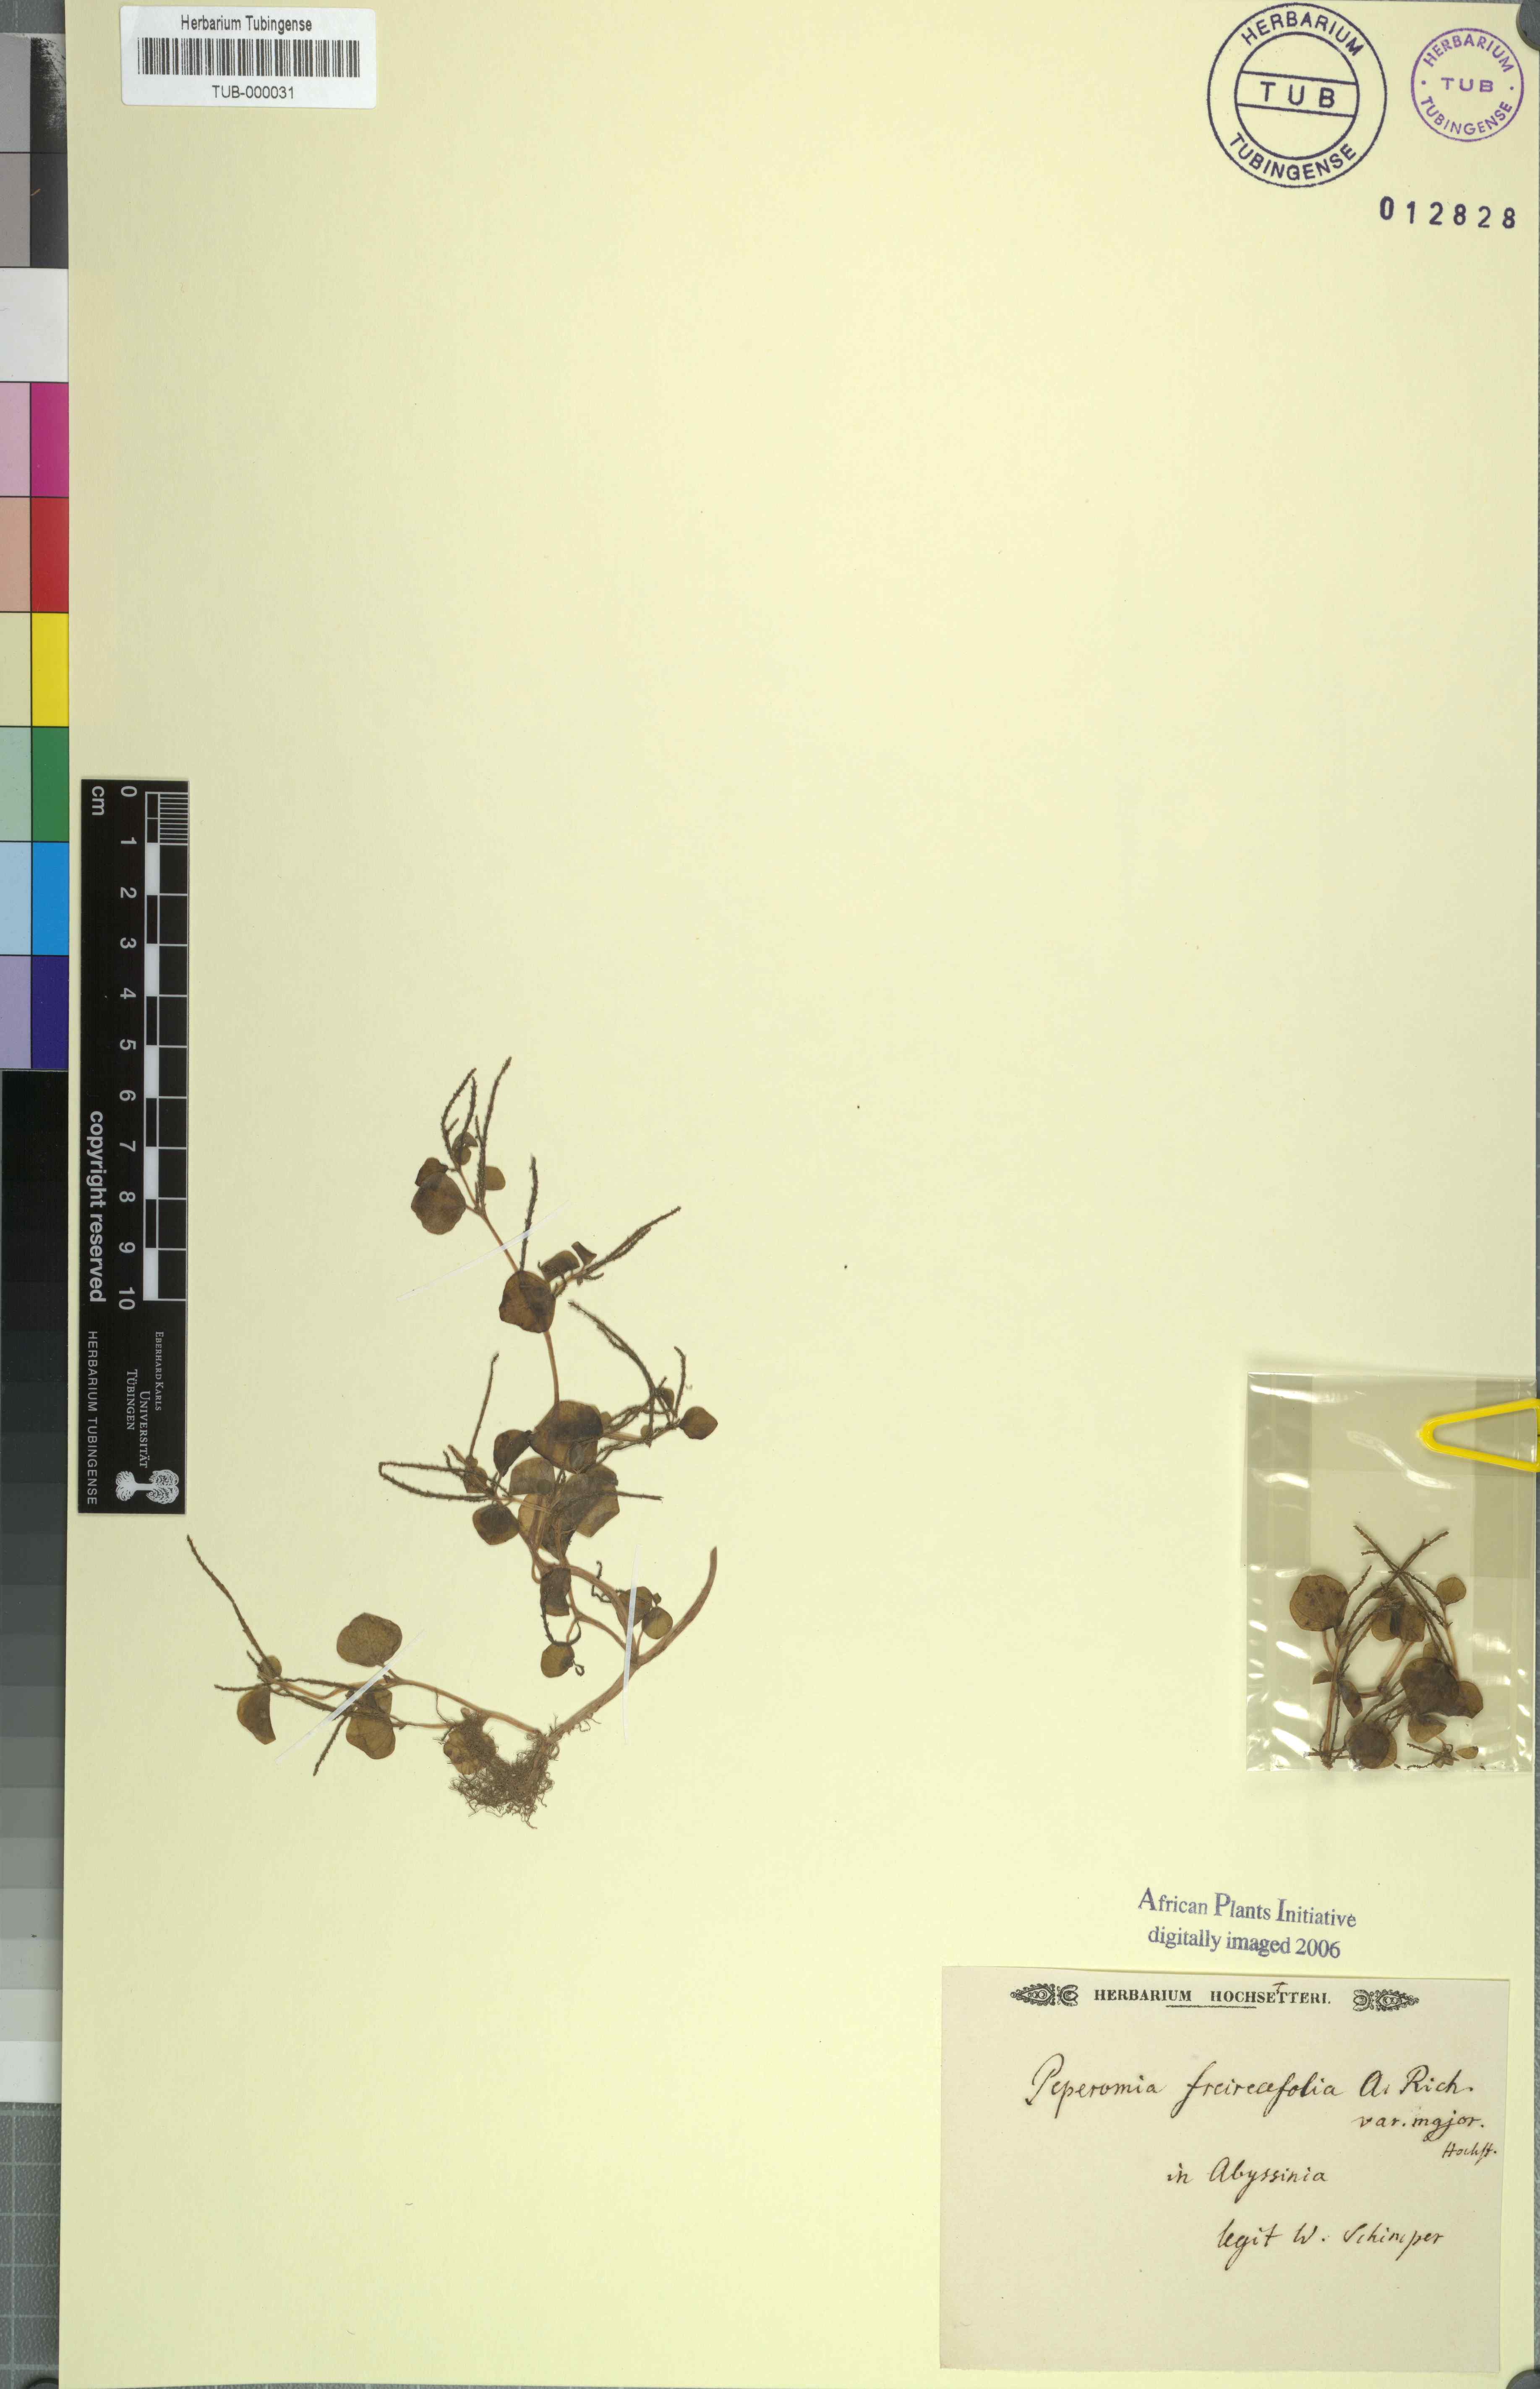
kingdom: Plantae
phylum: Tracheophyta
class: Magnoliopsida
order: Piperales
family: Piperaceae
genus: Peperomia
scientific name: Peperomia pellucida
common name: Man to man
